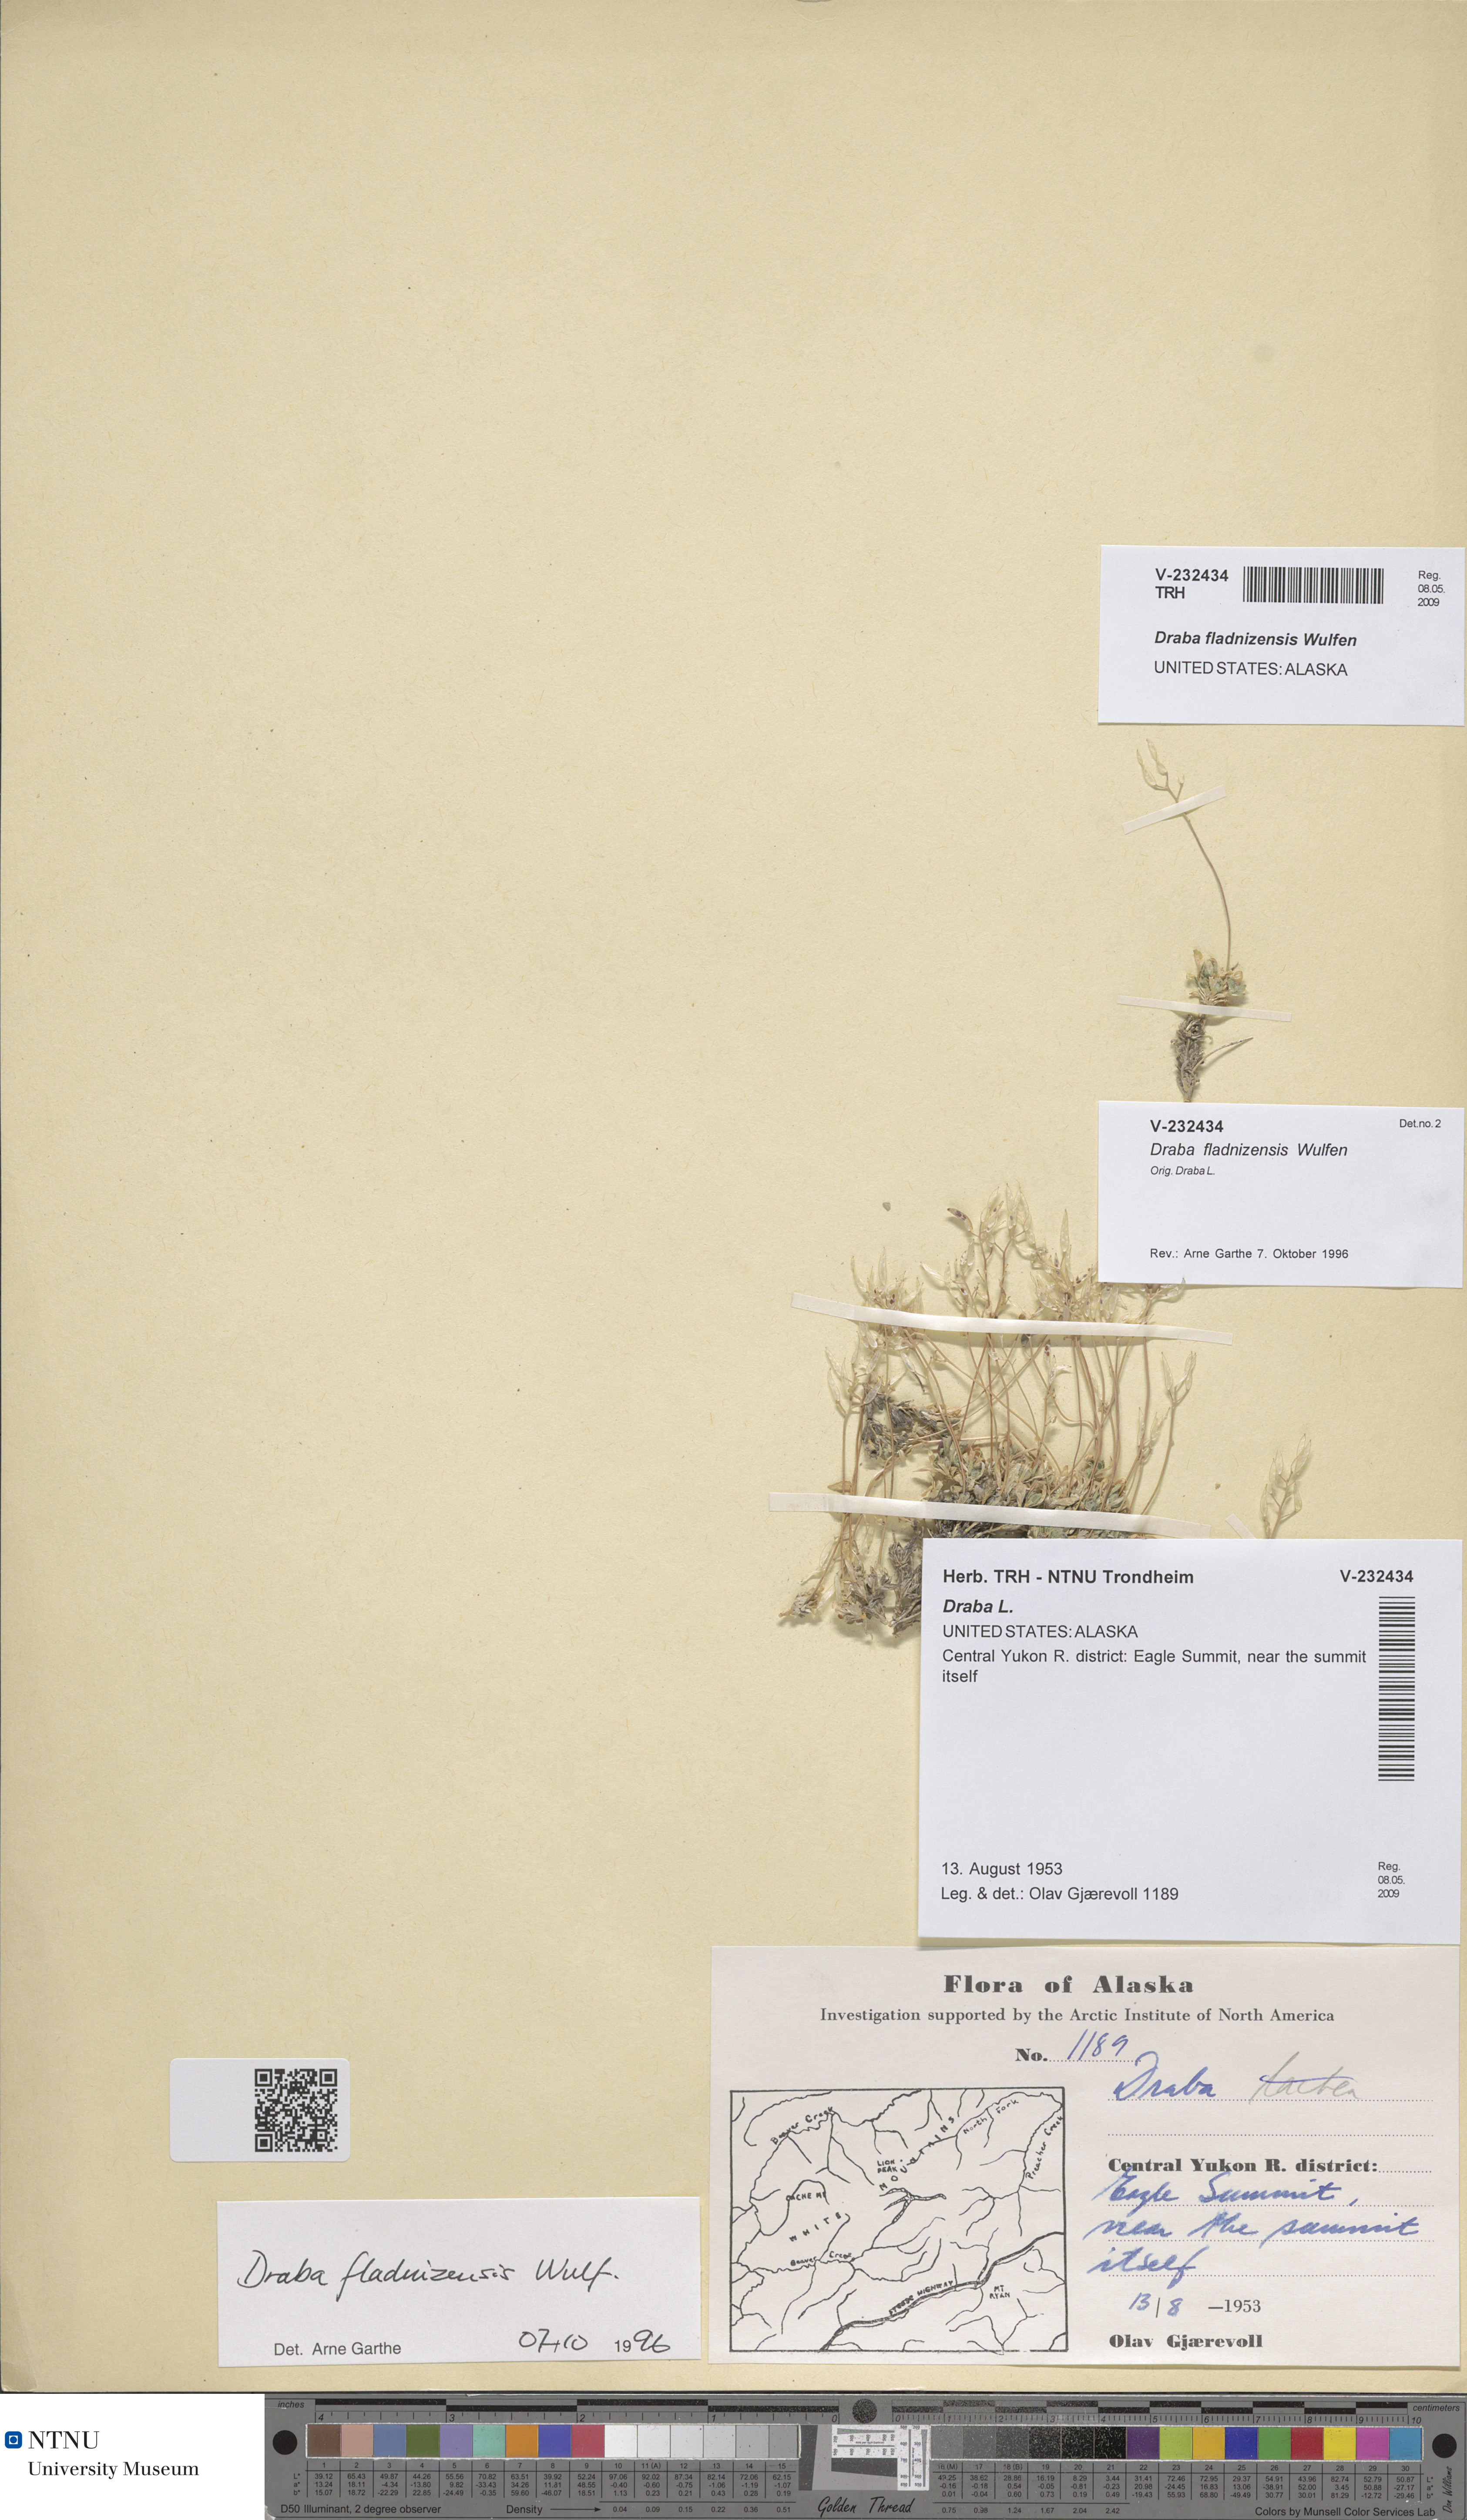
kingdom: Plantae
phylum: Tracheophyta
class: Magnoliopsida
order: Brassicales
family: Brassicaceae
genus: Draba
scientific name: Draba fladnizensis
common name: Austrian draba
